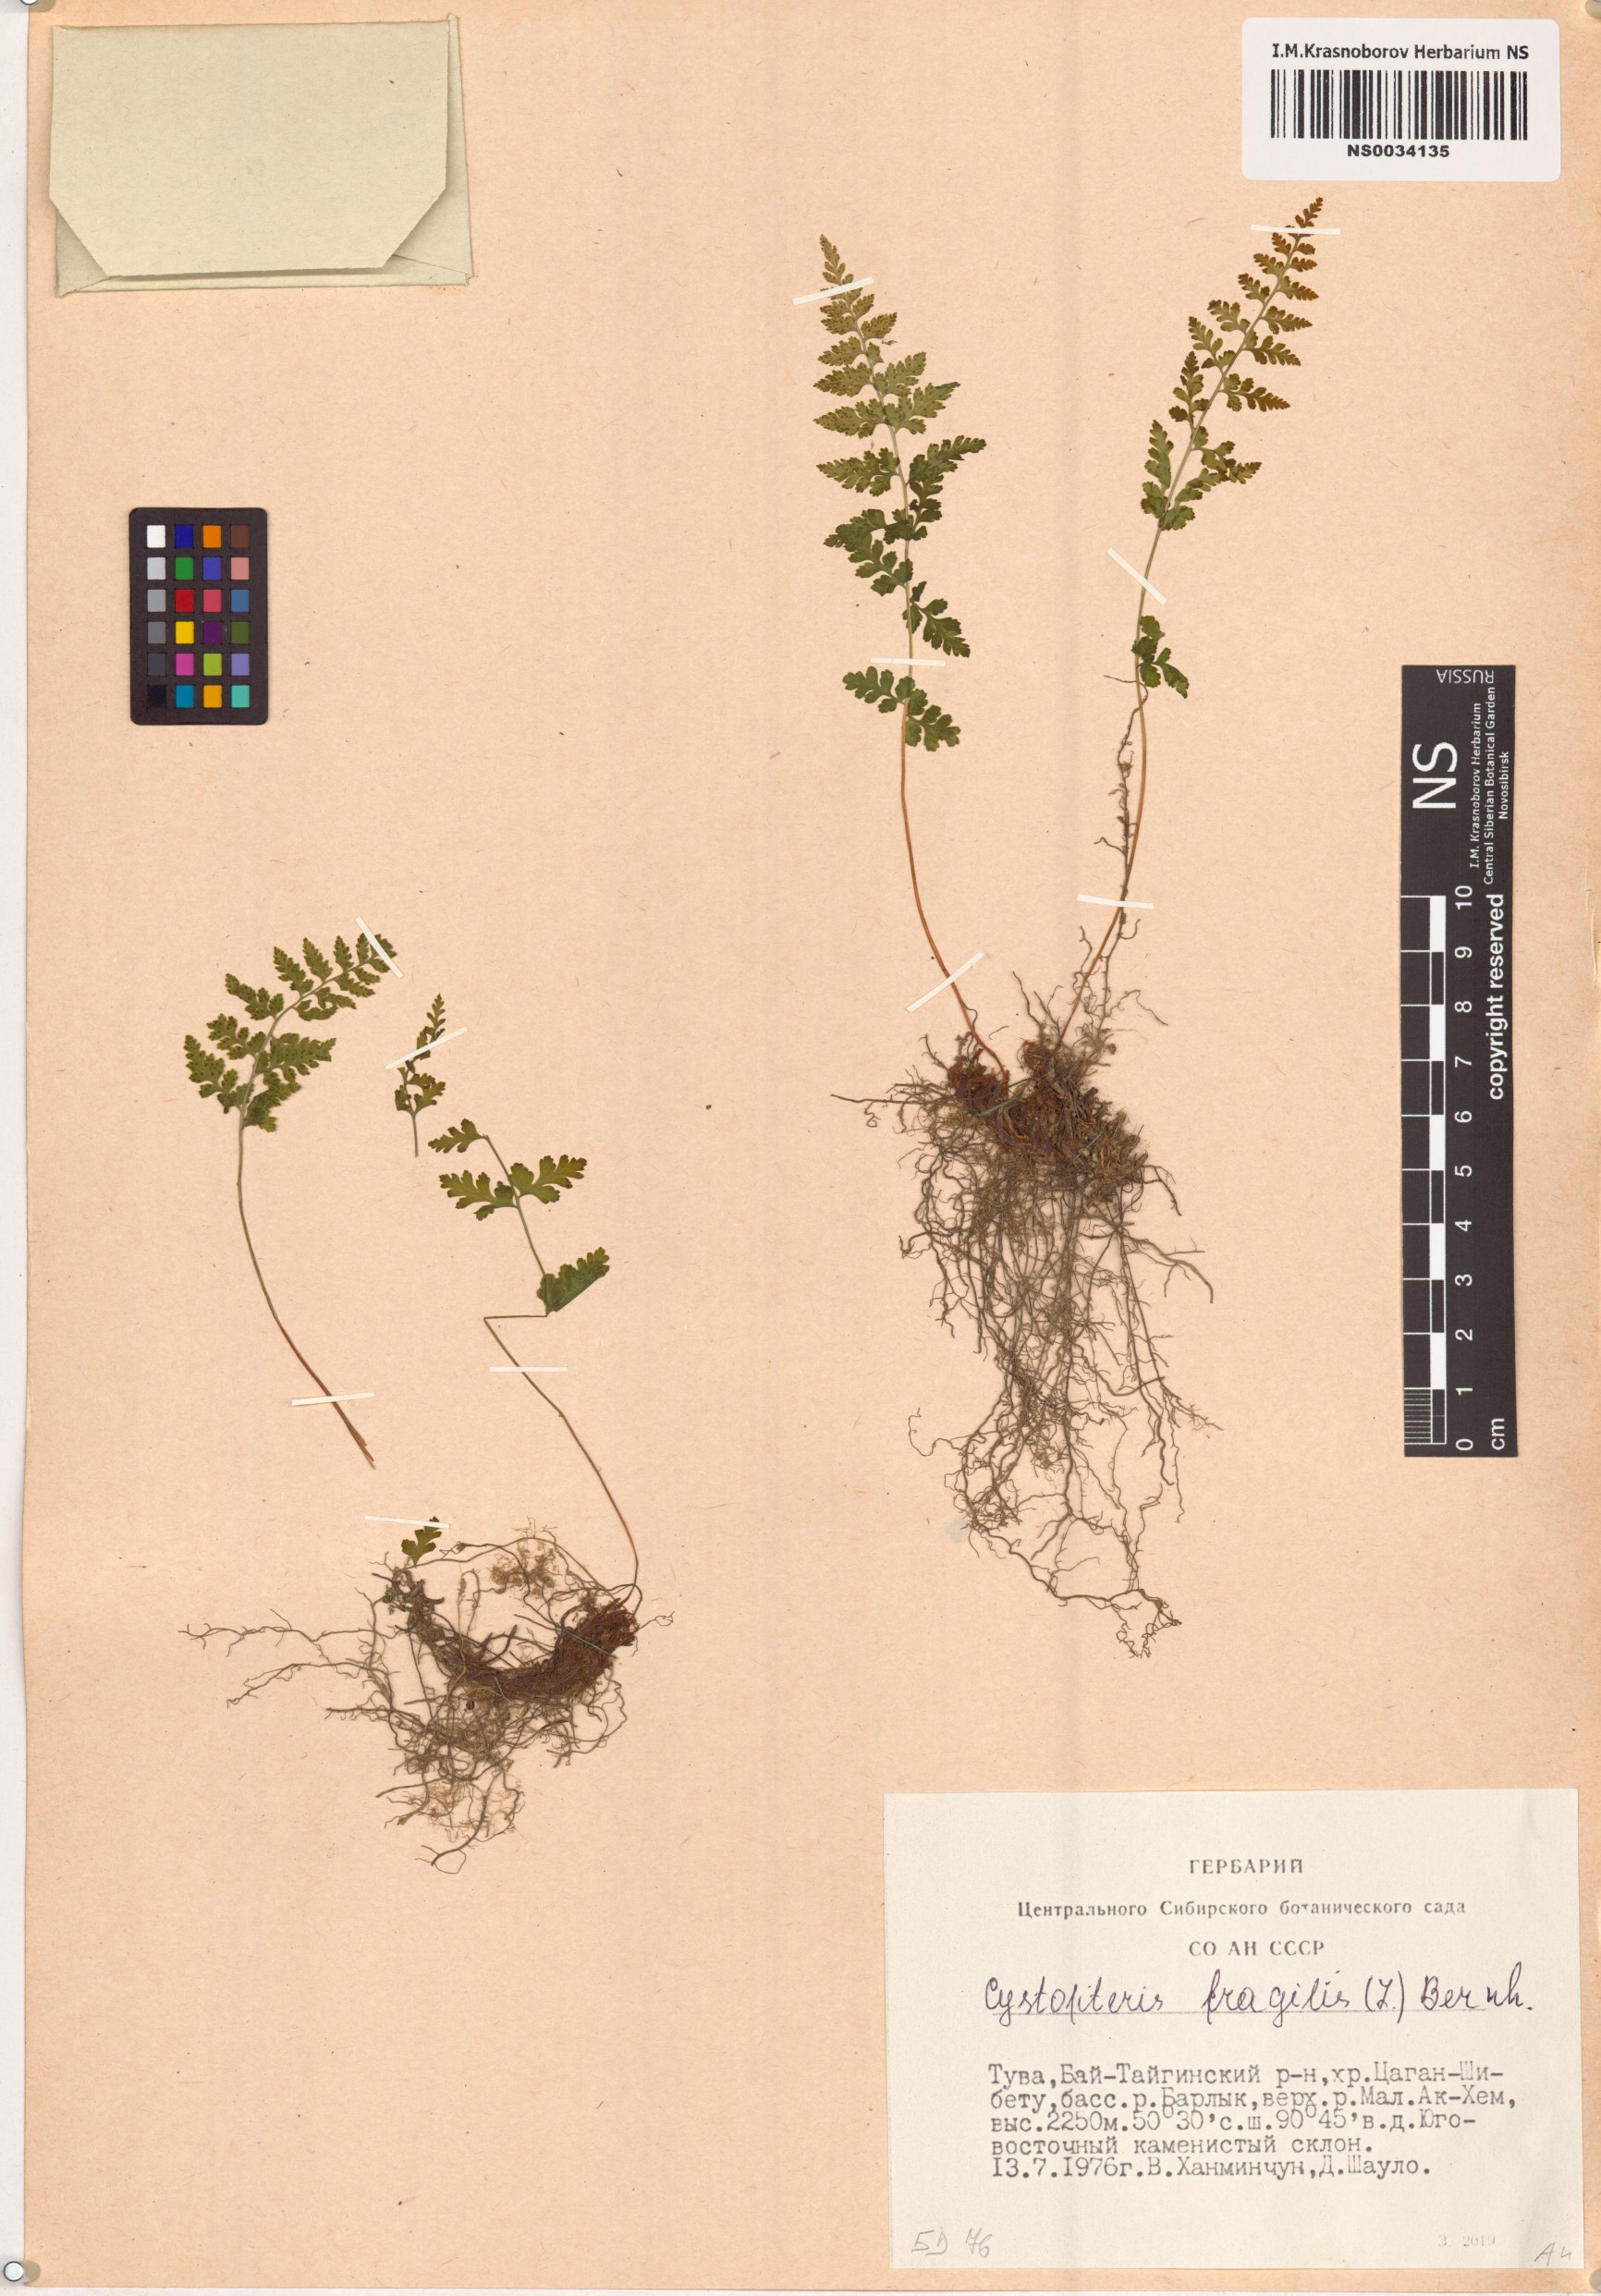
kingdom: Plantae
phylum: Tracheophyta
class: Polypodiopsida
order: Polypodiales
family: Cystopteridaceae
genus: Cystopteris
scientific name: Cystopteris fragilis
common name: Brittle bladder fern
